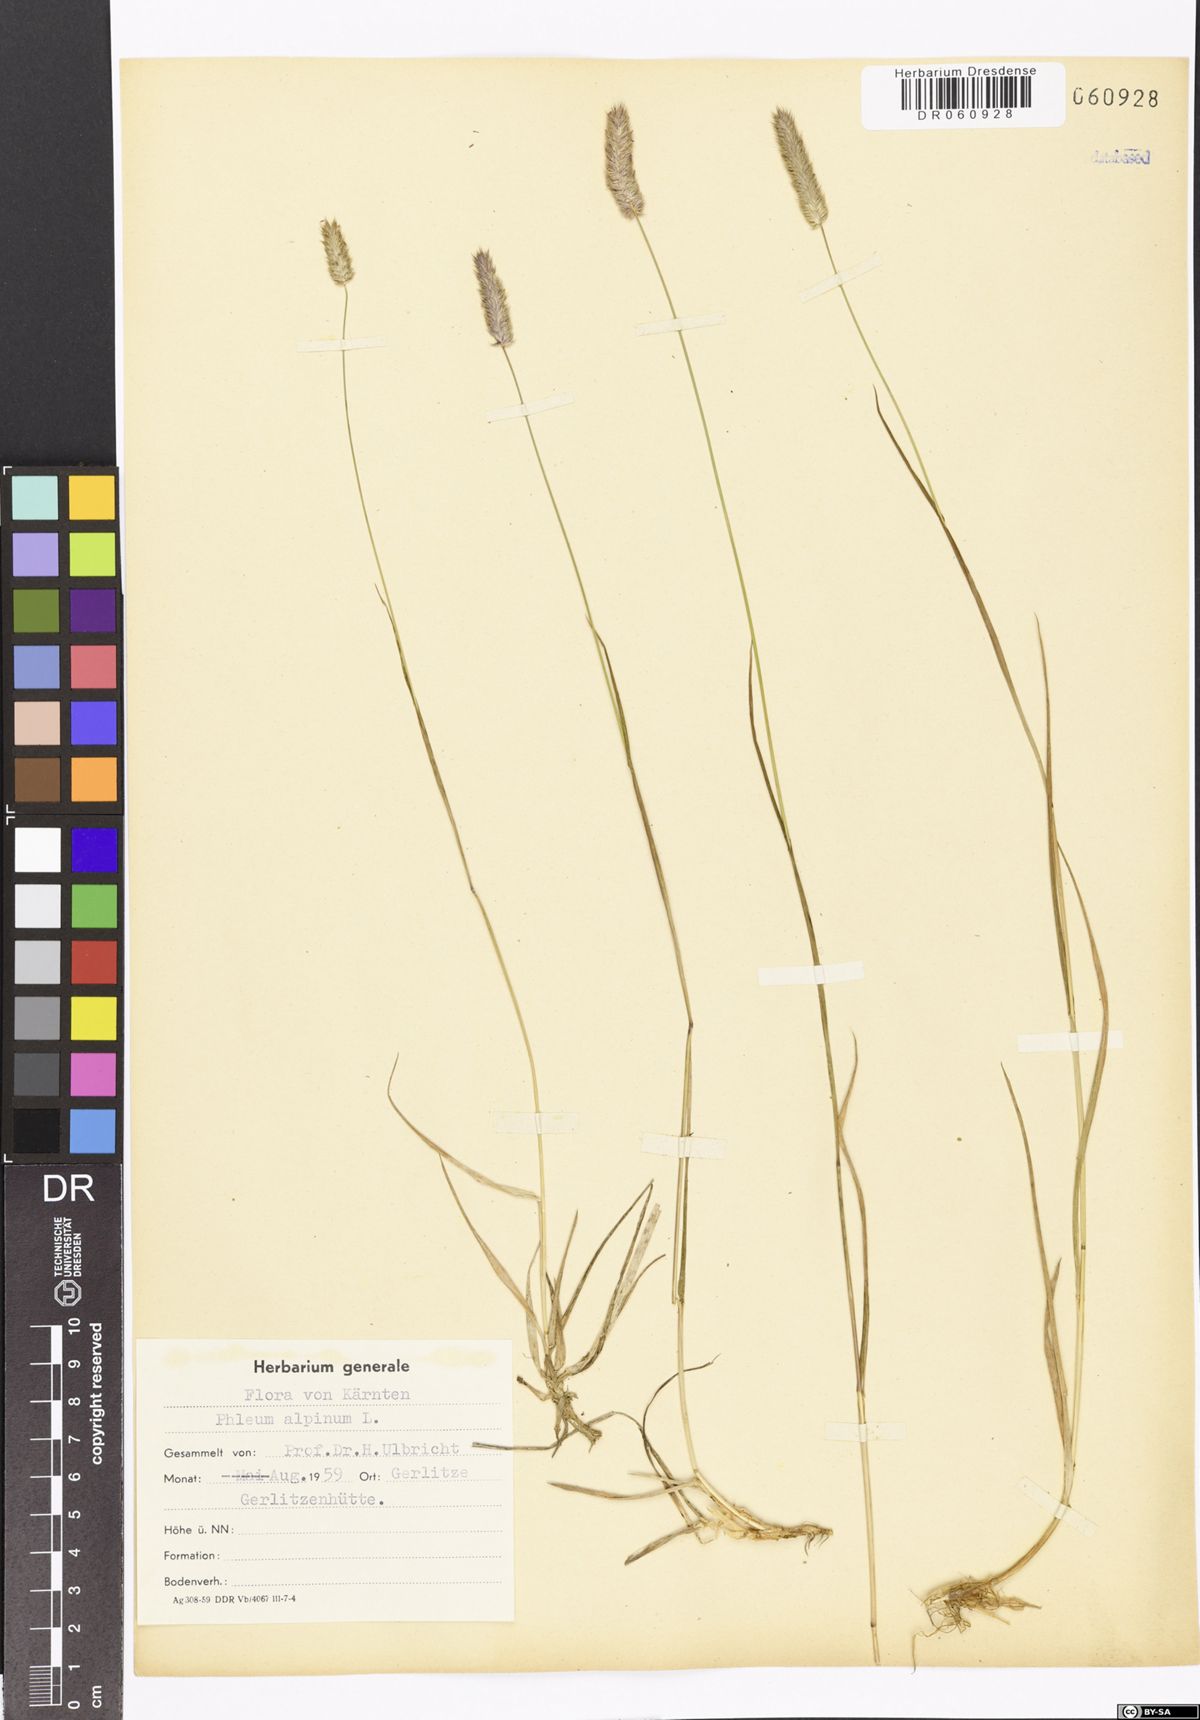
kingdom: Plantae
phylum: Tracheophyta
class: Liliopsida
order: Poales
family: Poaceae
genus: Phleum
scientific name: Phleum alpinum
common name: Alpine cat's-tail
